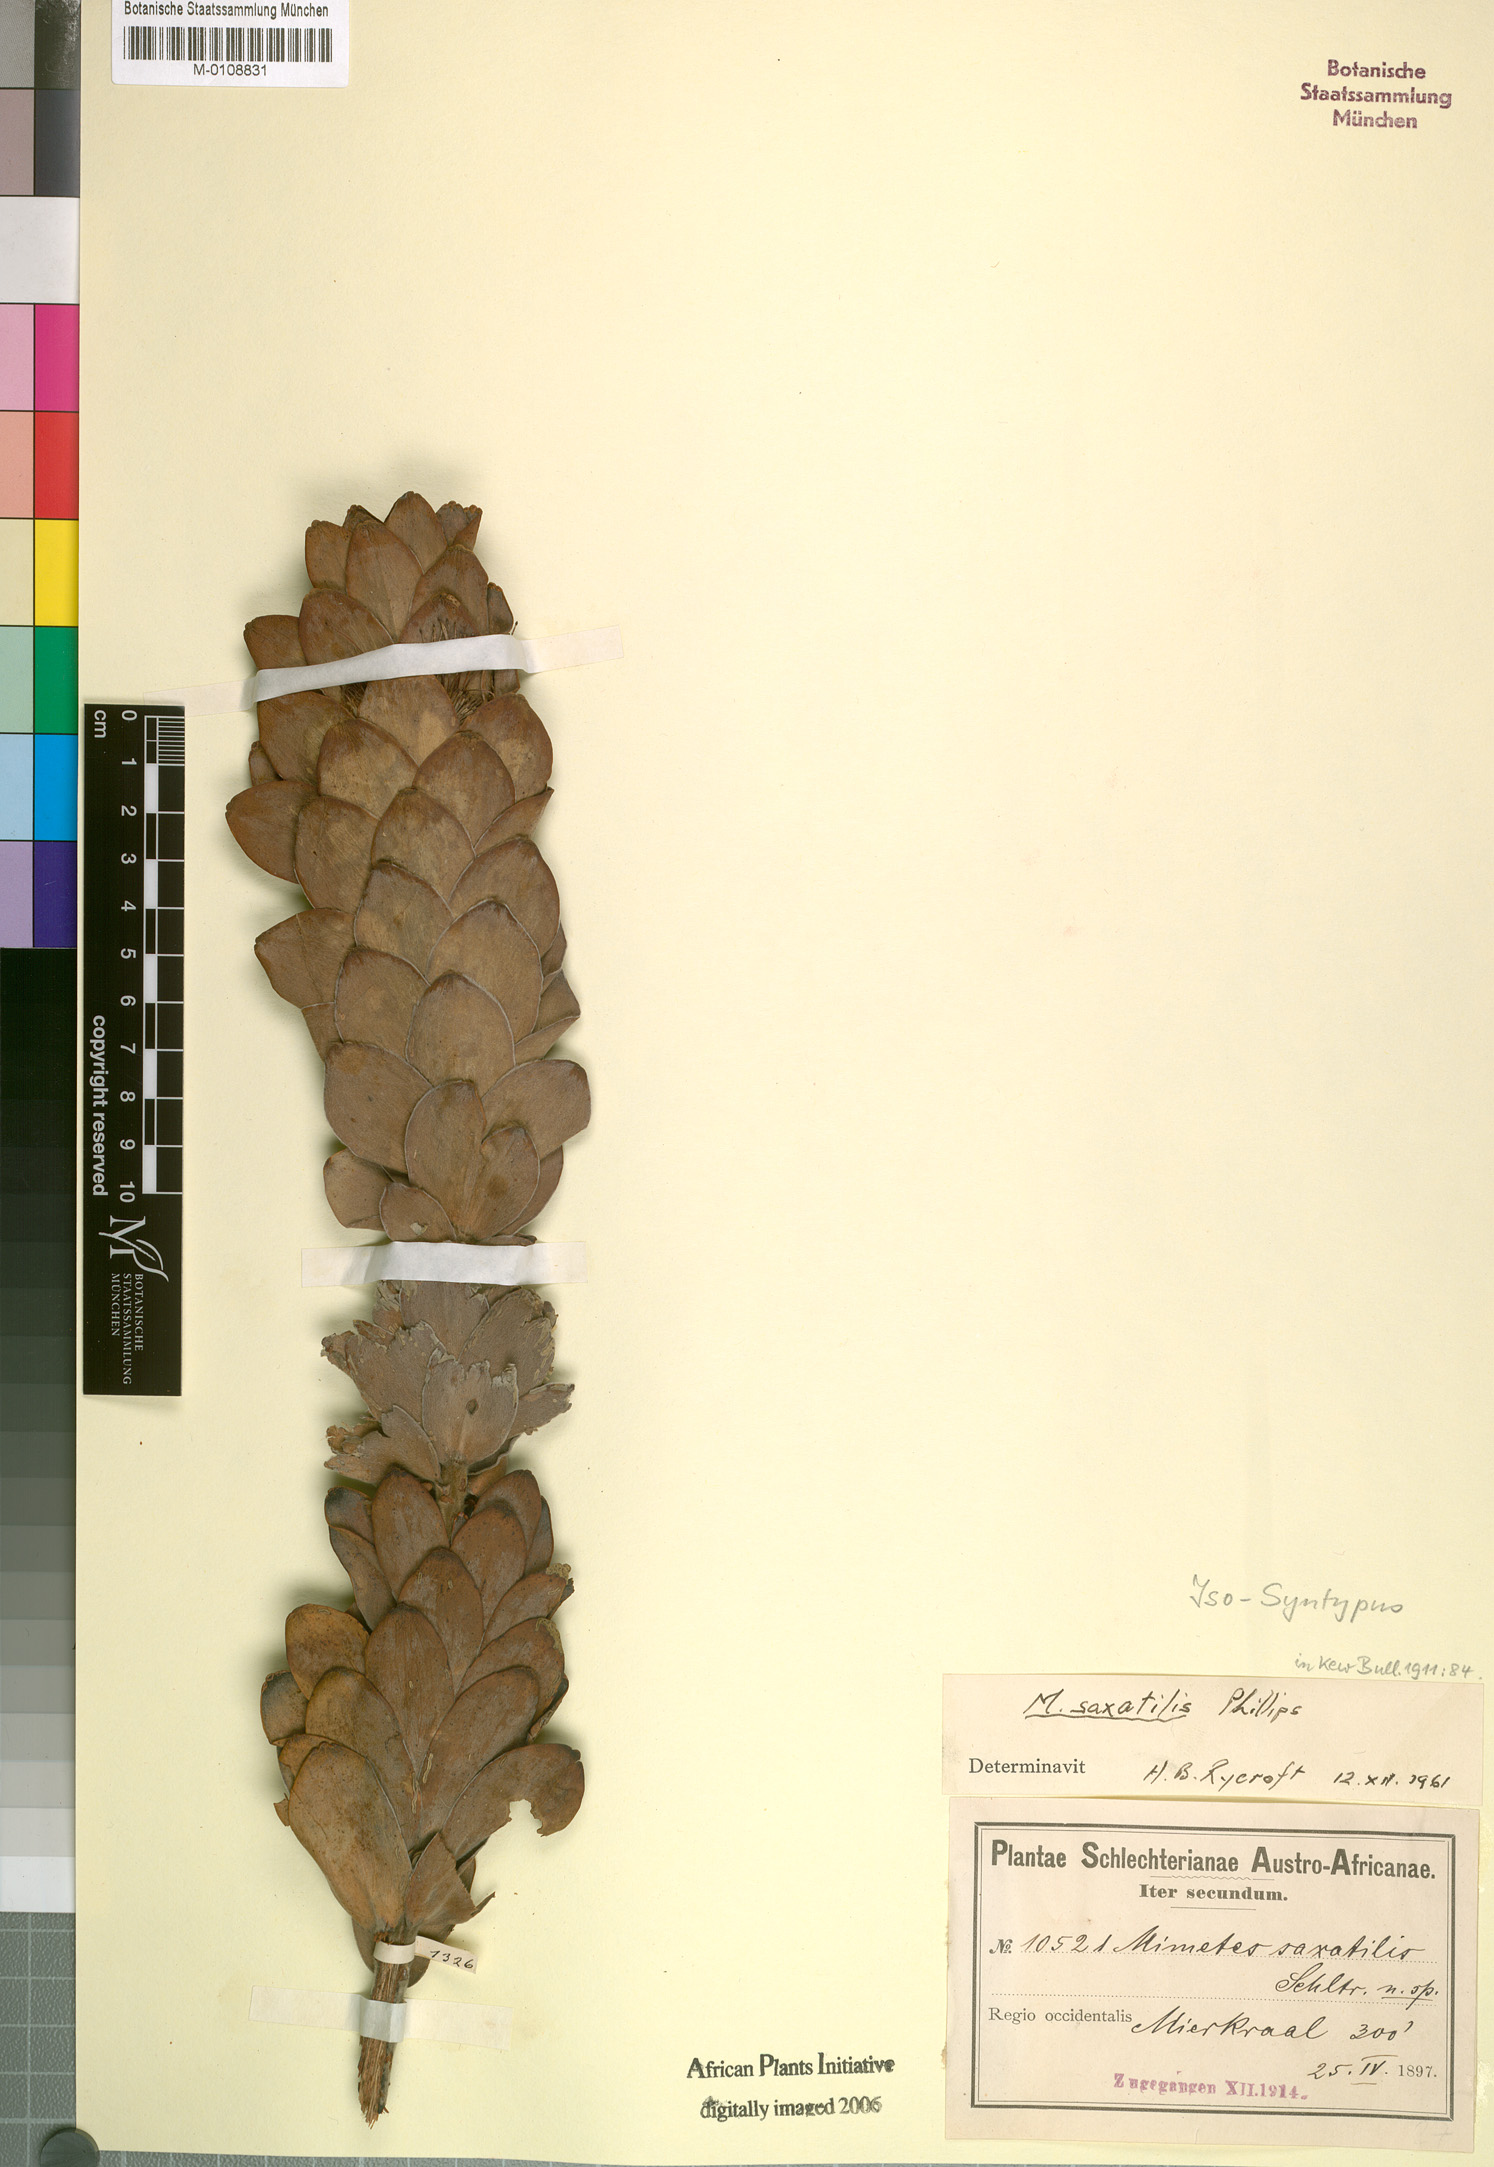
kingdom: Plantae
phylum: Tracheophyta
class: Magnoliopsida
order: Proteales
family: Proteaceae
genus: Mimetes
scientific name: Mimetes saxatilis
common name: Limestone pagoda
